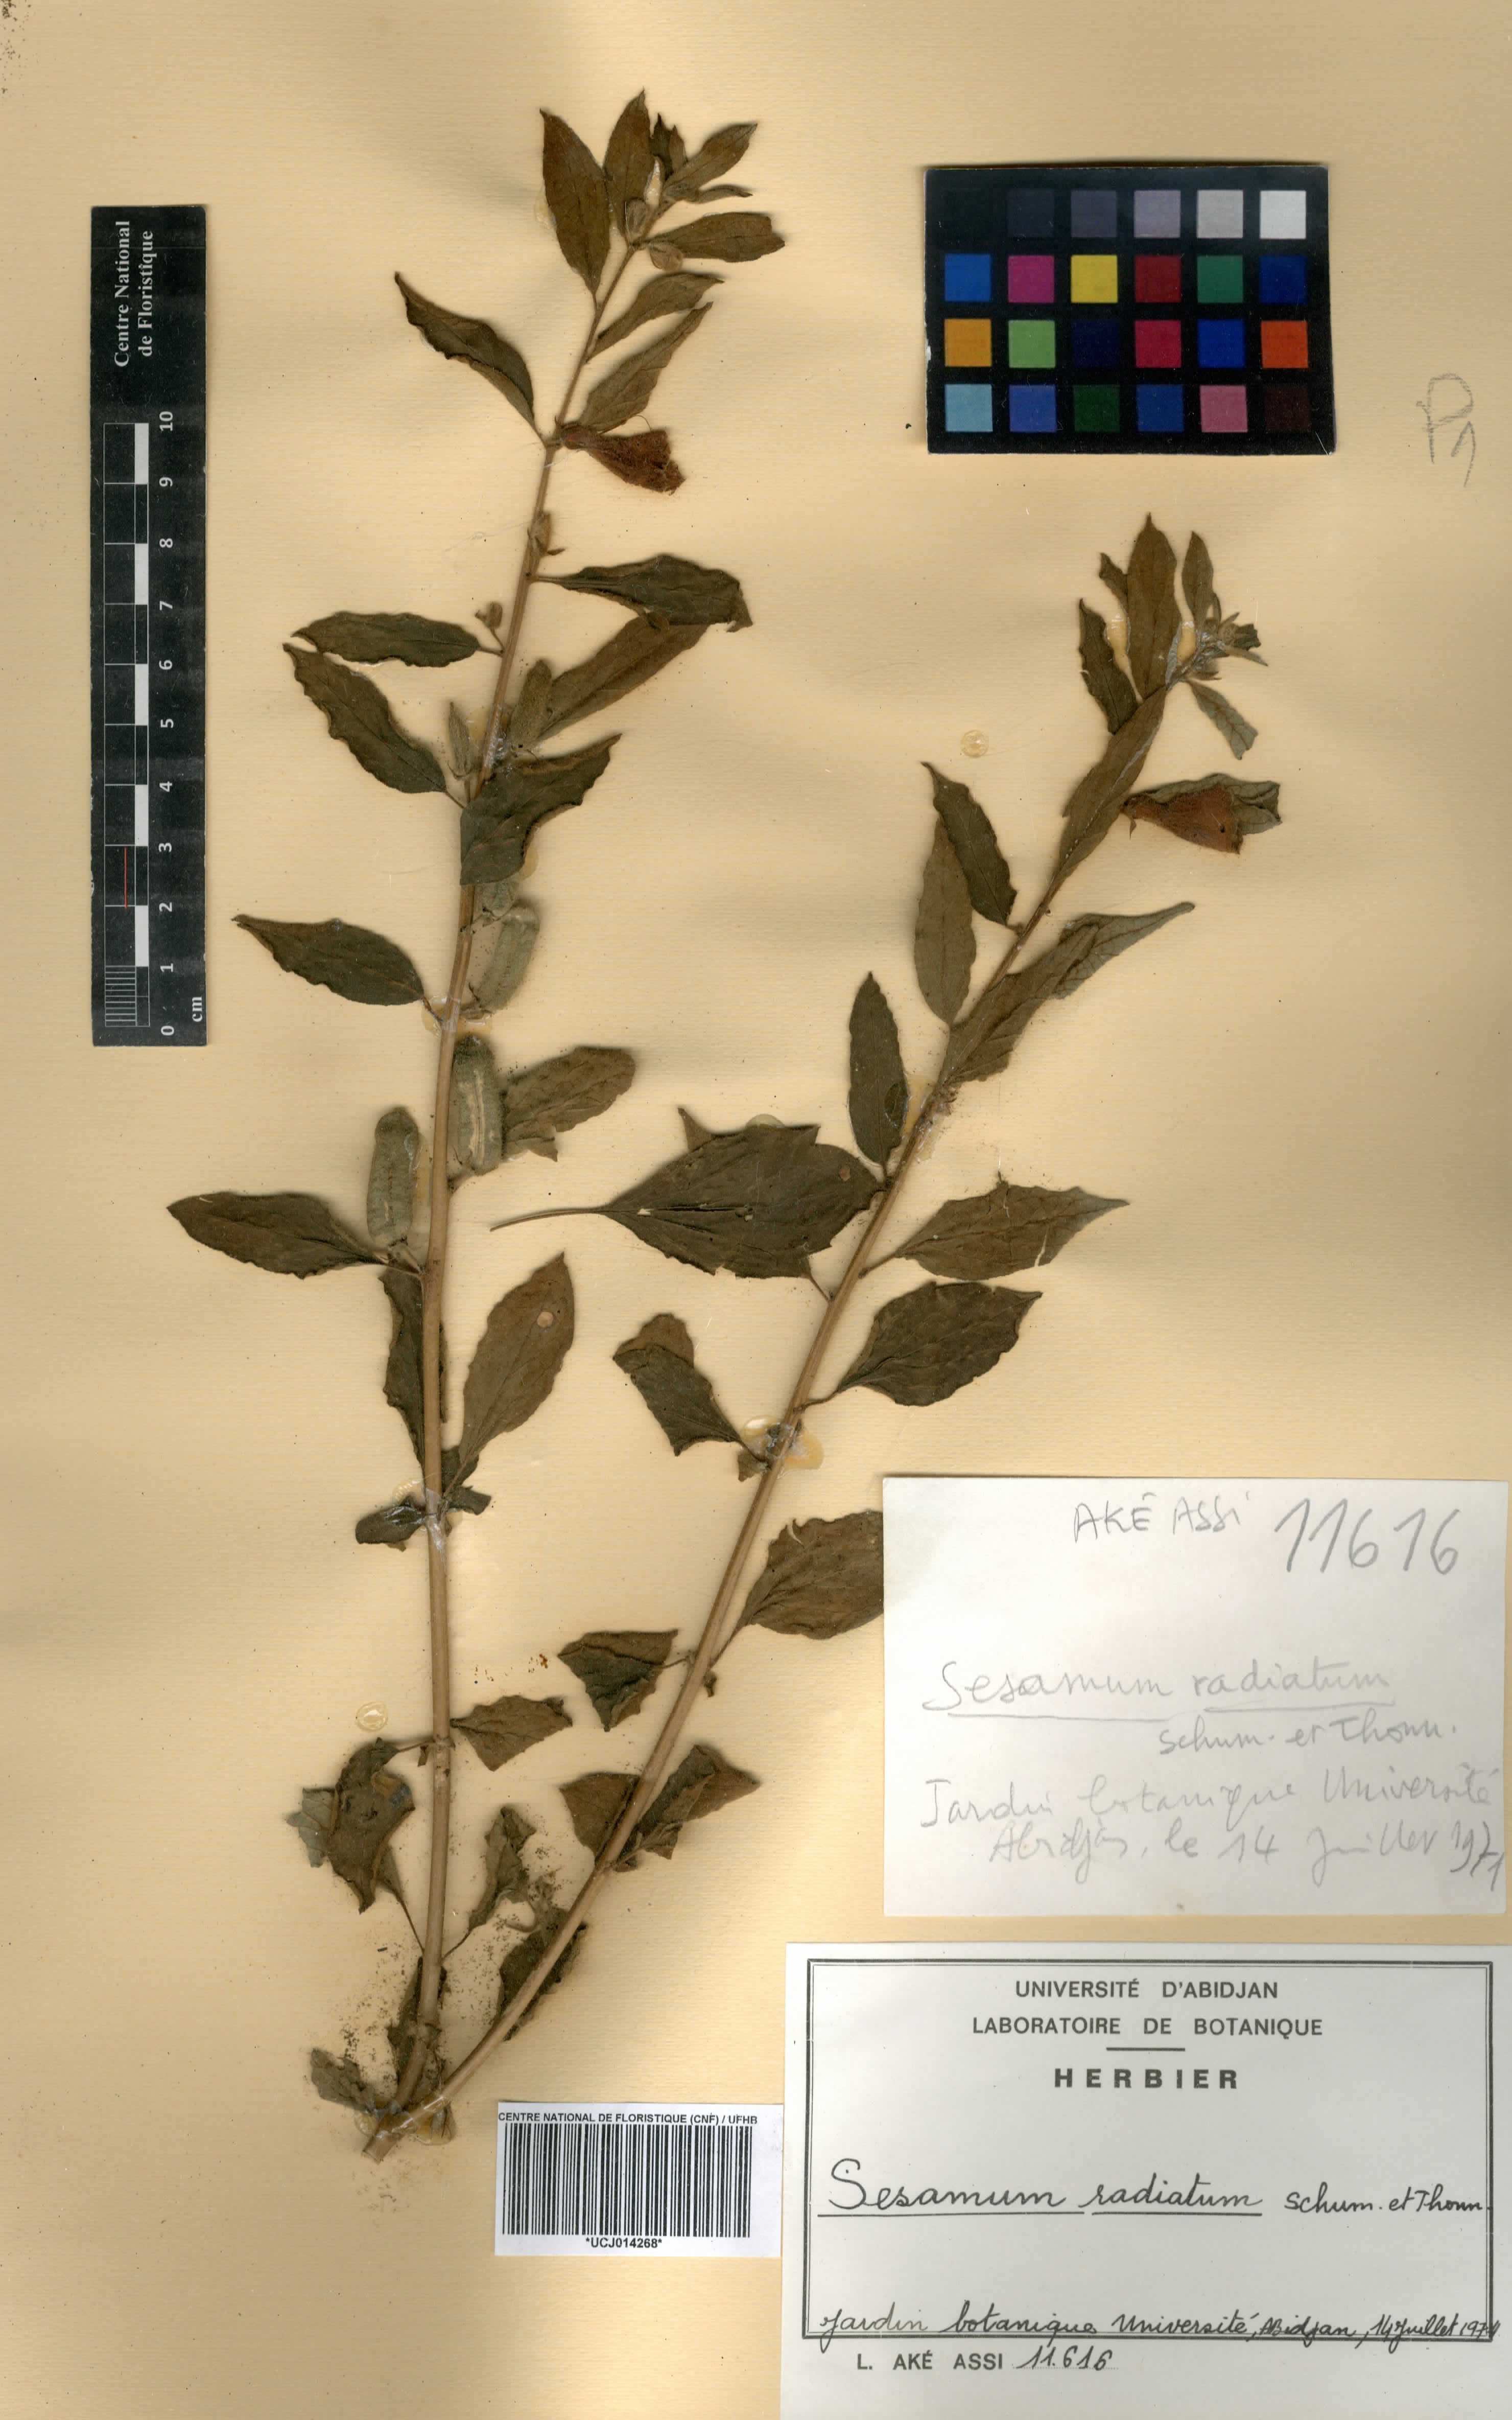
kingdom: Plantae
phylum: Tracheophyta
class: Magnoliopsida
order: Lamiales
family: Pedaliaceae
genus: Sesamum
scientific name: Sesamum radiatum
